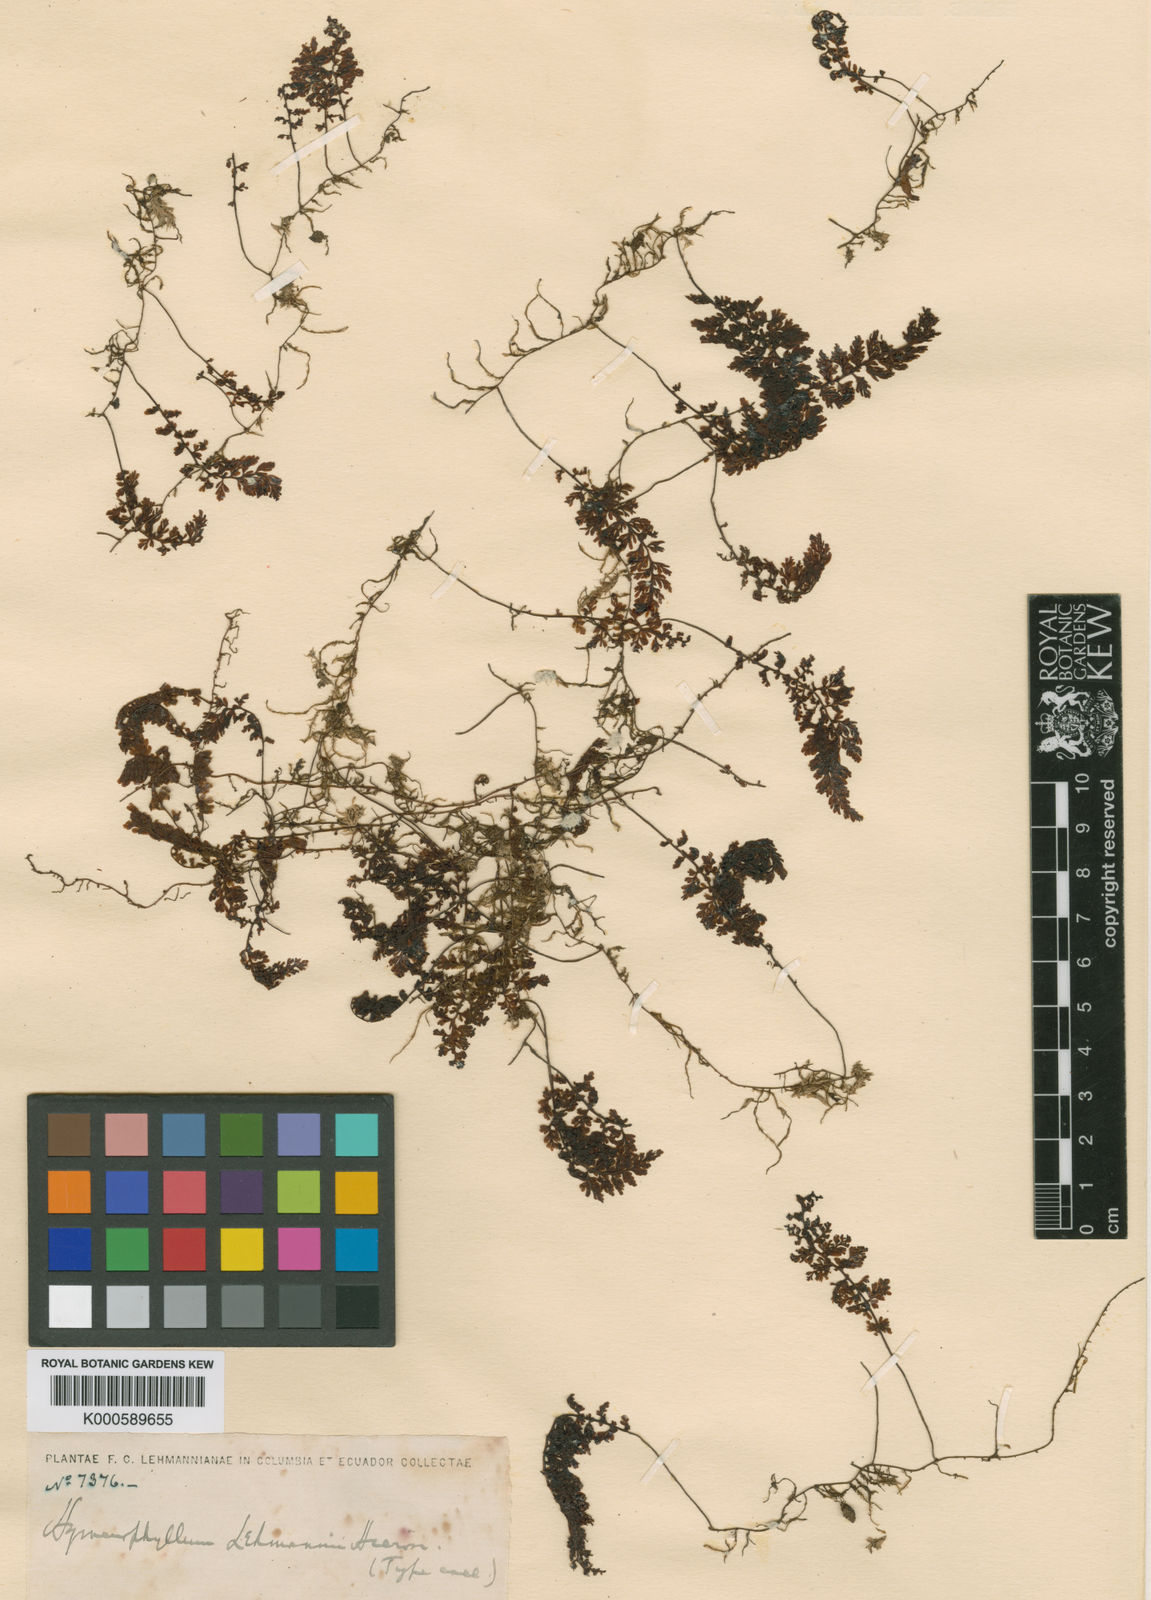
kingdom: Plantae
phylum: Tracheophyta
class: Polypodiopsida
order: Hymenophyllales
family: Hymenophyllaceae
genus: Hymenophyllum
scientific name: Hymenophyllum lehmannii
